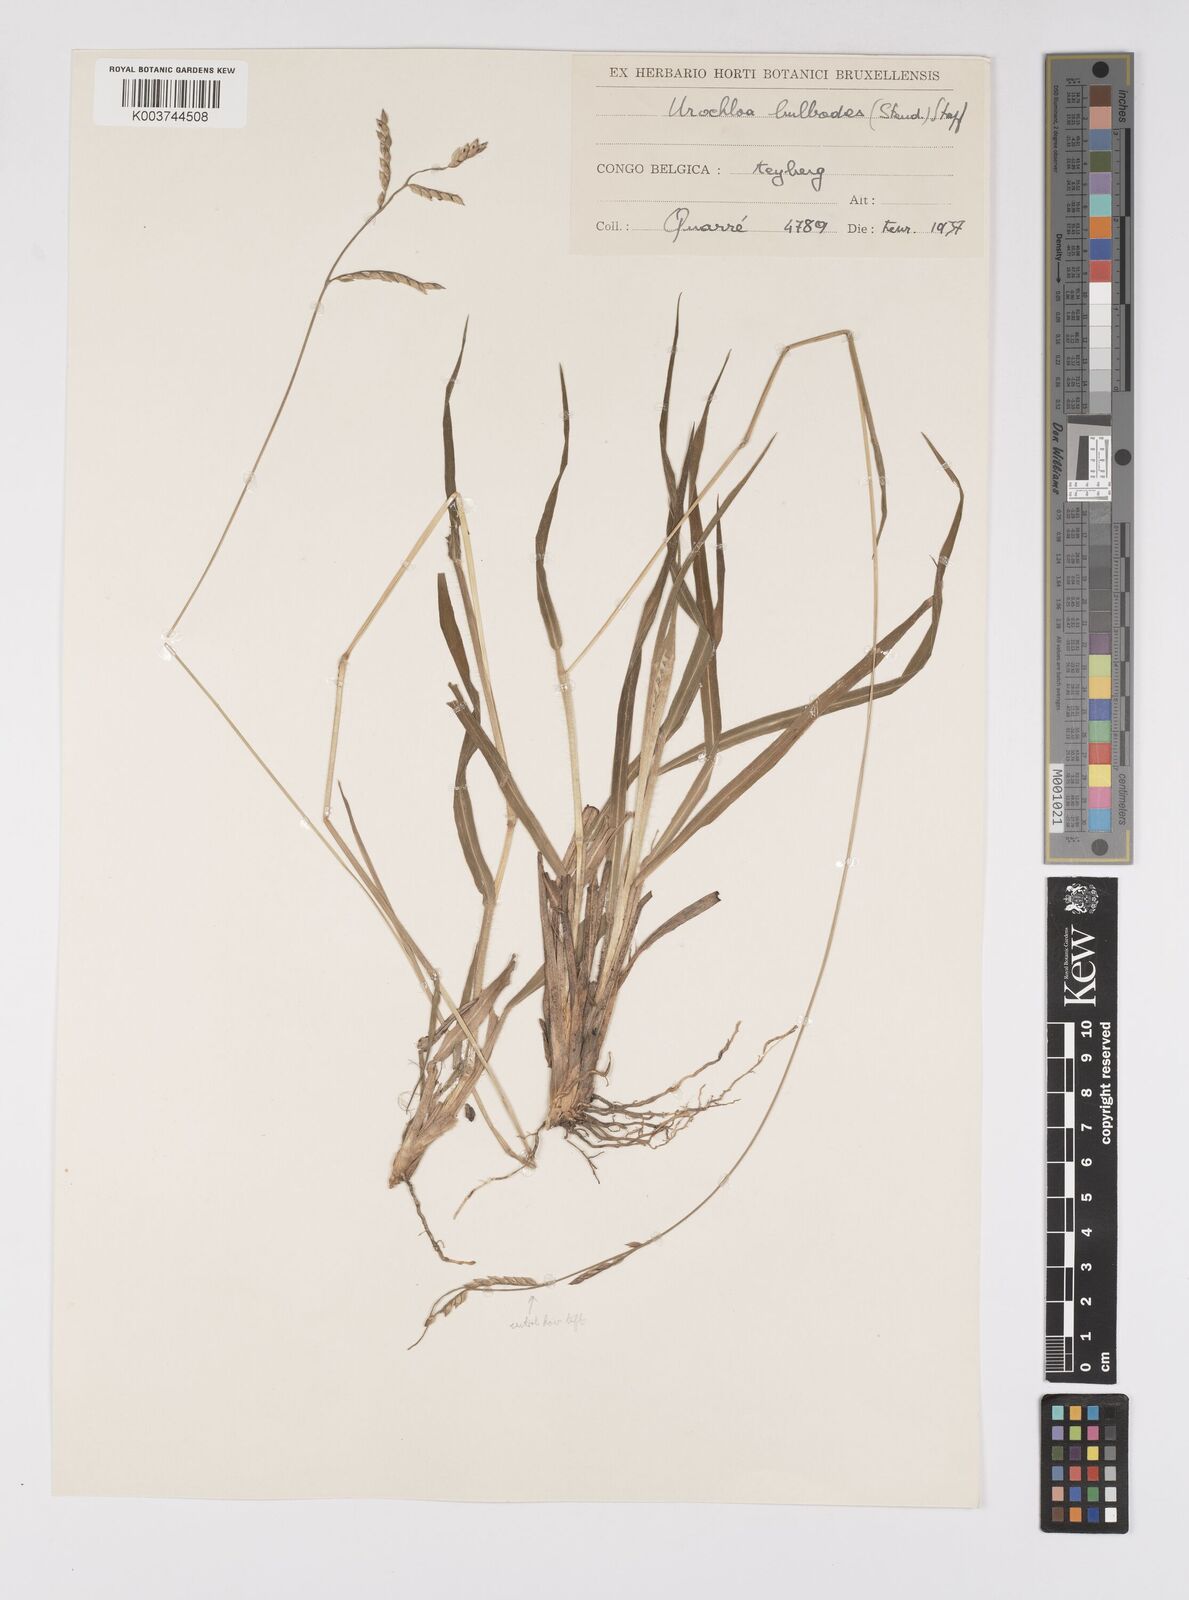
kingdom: Plantae
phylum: Tracheophyta
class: Liliopsida
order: Poales
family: Poaceae
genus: Urochloa
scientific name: Urochloa oligotricha
